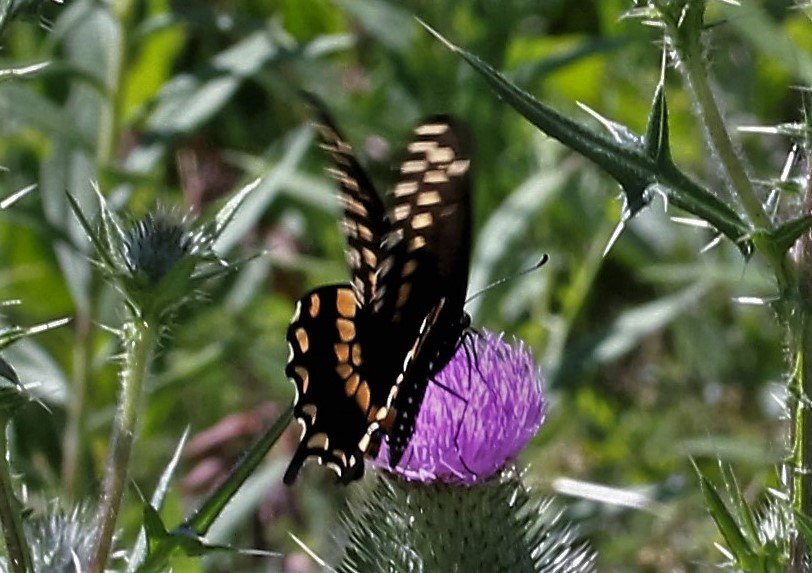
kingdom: Animalia
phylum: Arthropoda
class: Insecta
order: Lepidoptera
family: Papilionidae
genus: Papilio
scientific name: Papilio polyxenes
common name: Black Swallowtail
